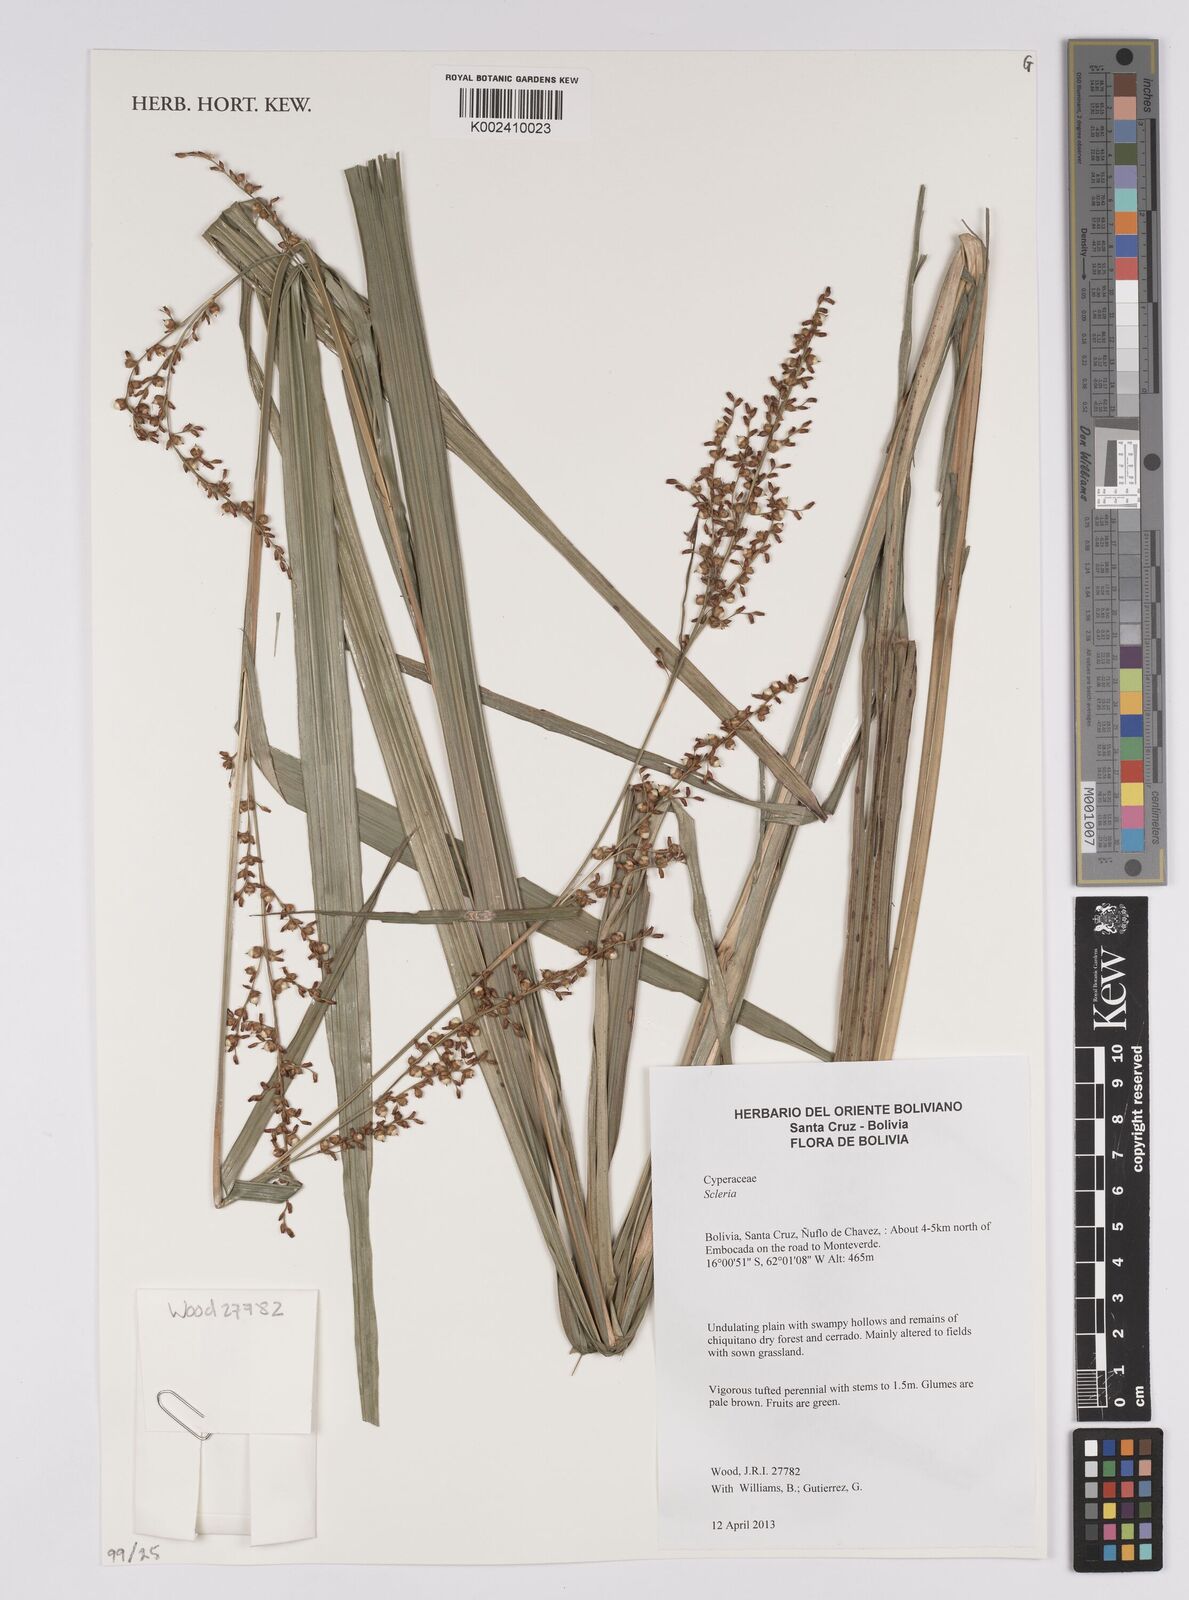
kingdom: Plantae
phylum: Tracheophyta
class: Liliopsida
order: Poales
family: Cyperaceae
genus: Scleria
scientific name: Scleria
